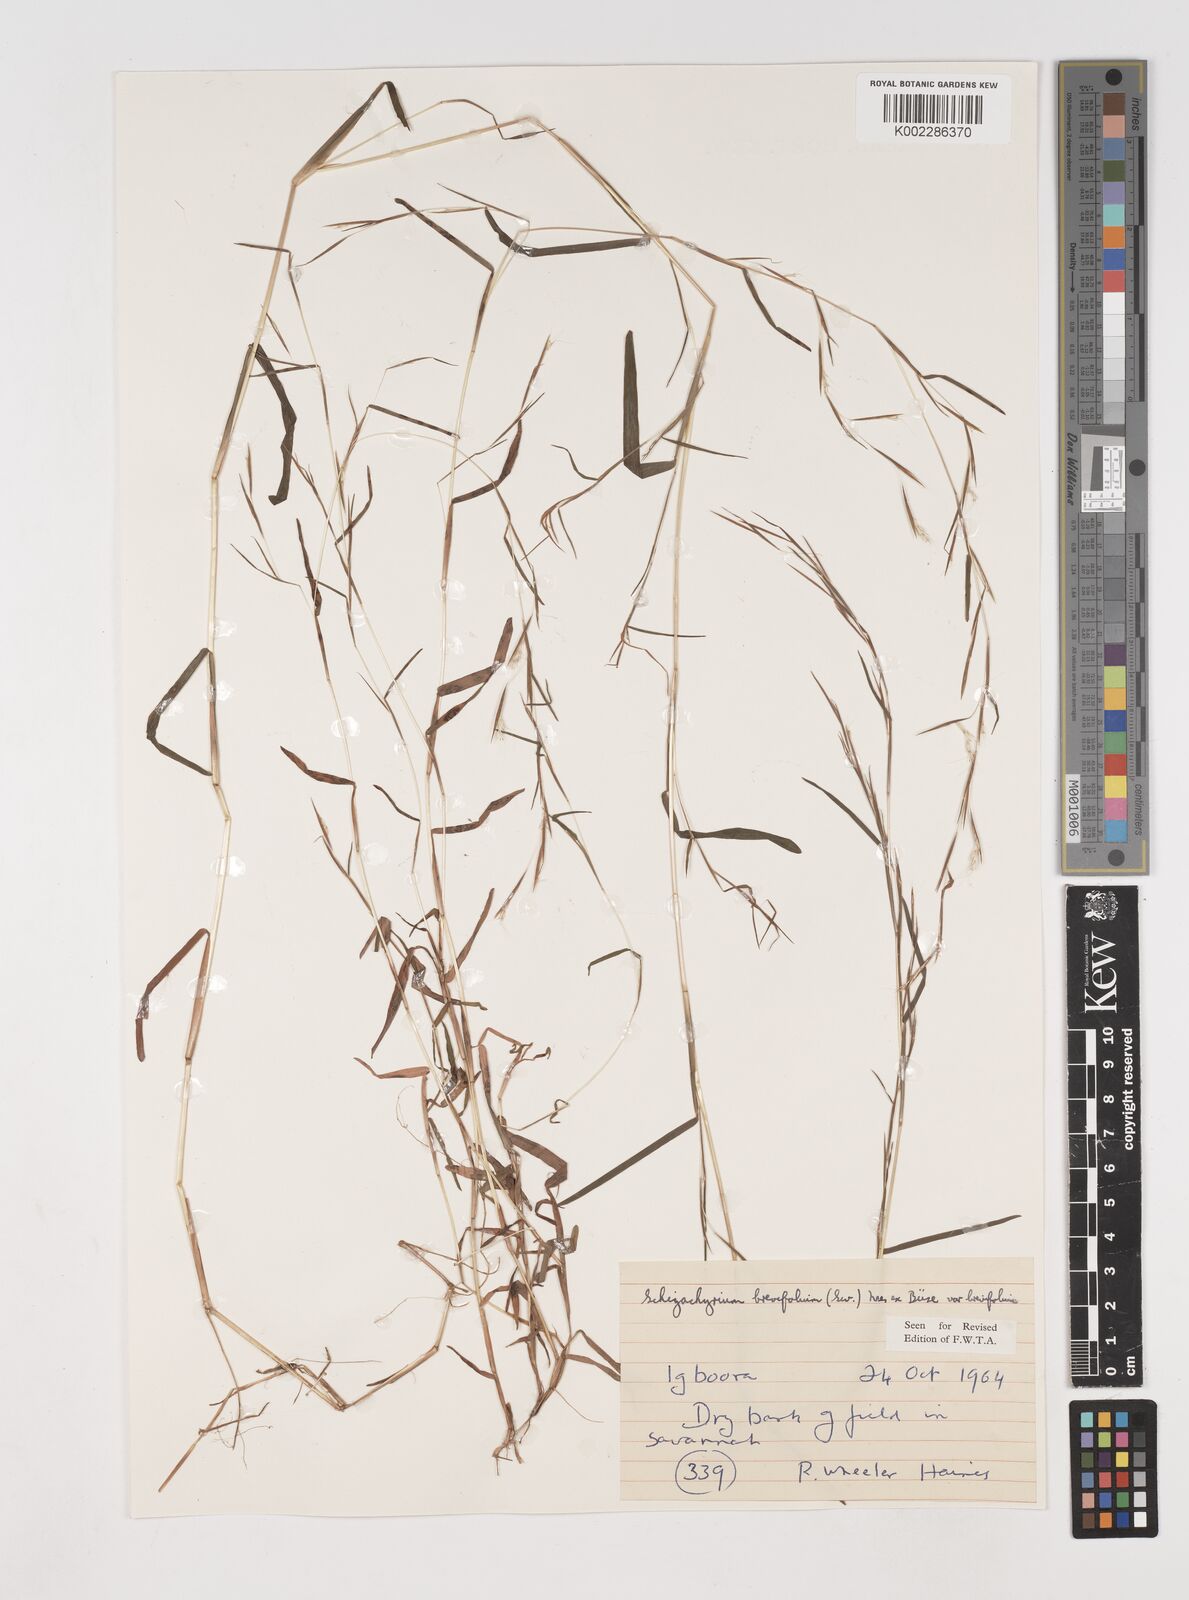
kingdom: Plantae
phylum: Tracheophyta
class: Liliopsida
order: Poales
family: Poaceae
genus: Schizachyrium
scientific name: Schizachyrium brevifolium
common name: Serillo dulce
